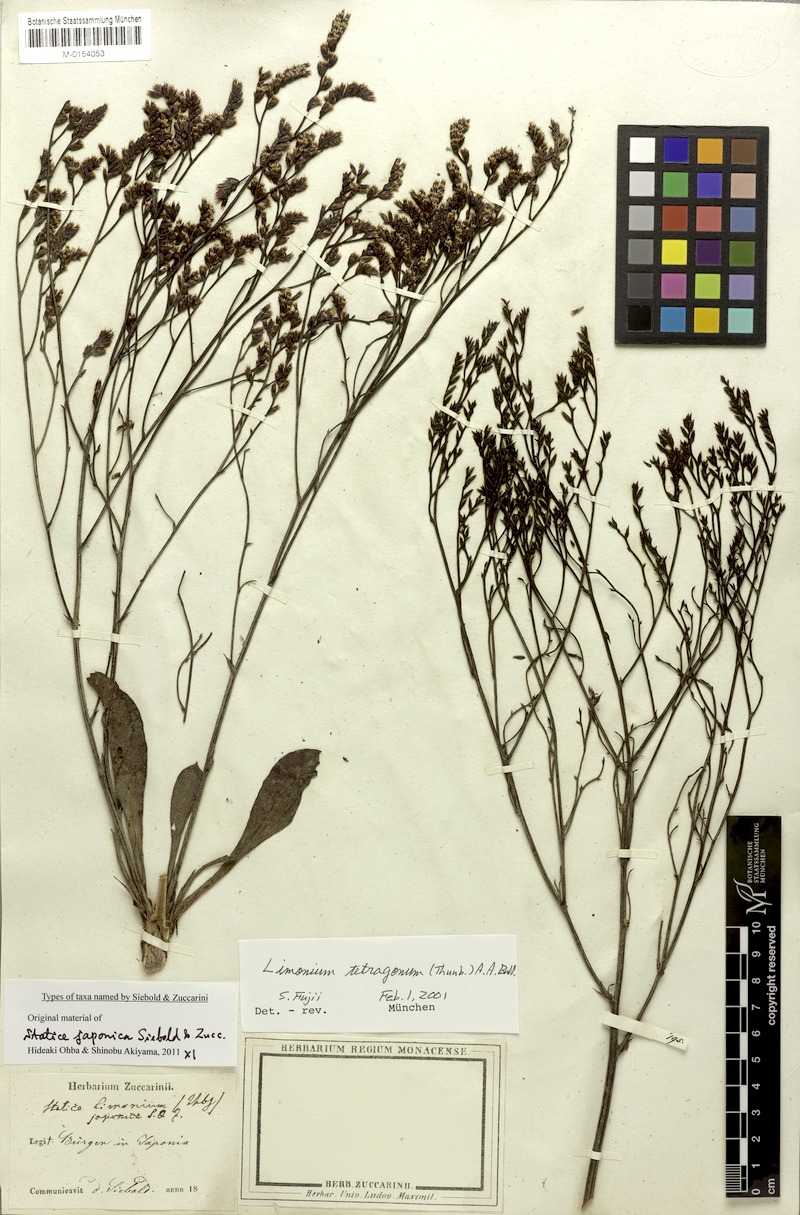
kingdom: Plantae
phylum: Tracheophyta
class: Magnoliopsida
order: Caryophyllales
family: Plumbaginaceae
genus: Limonium
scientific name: Limonium tetragonum
